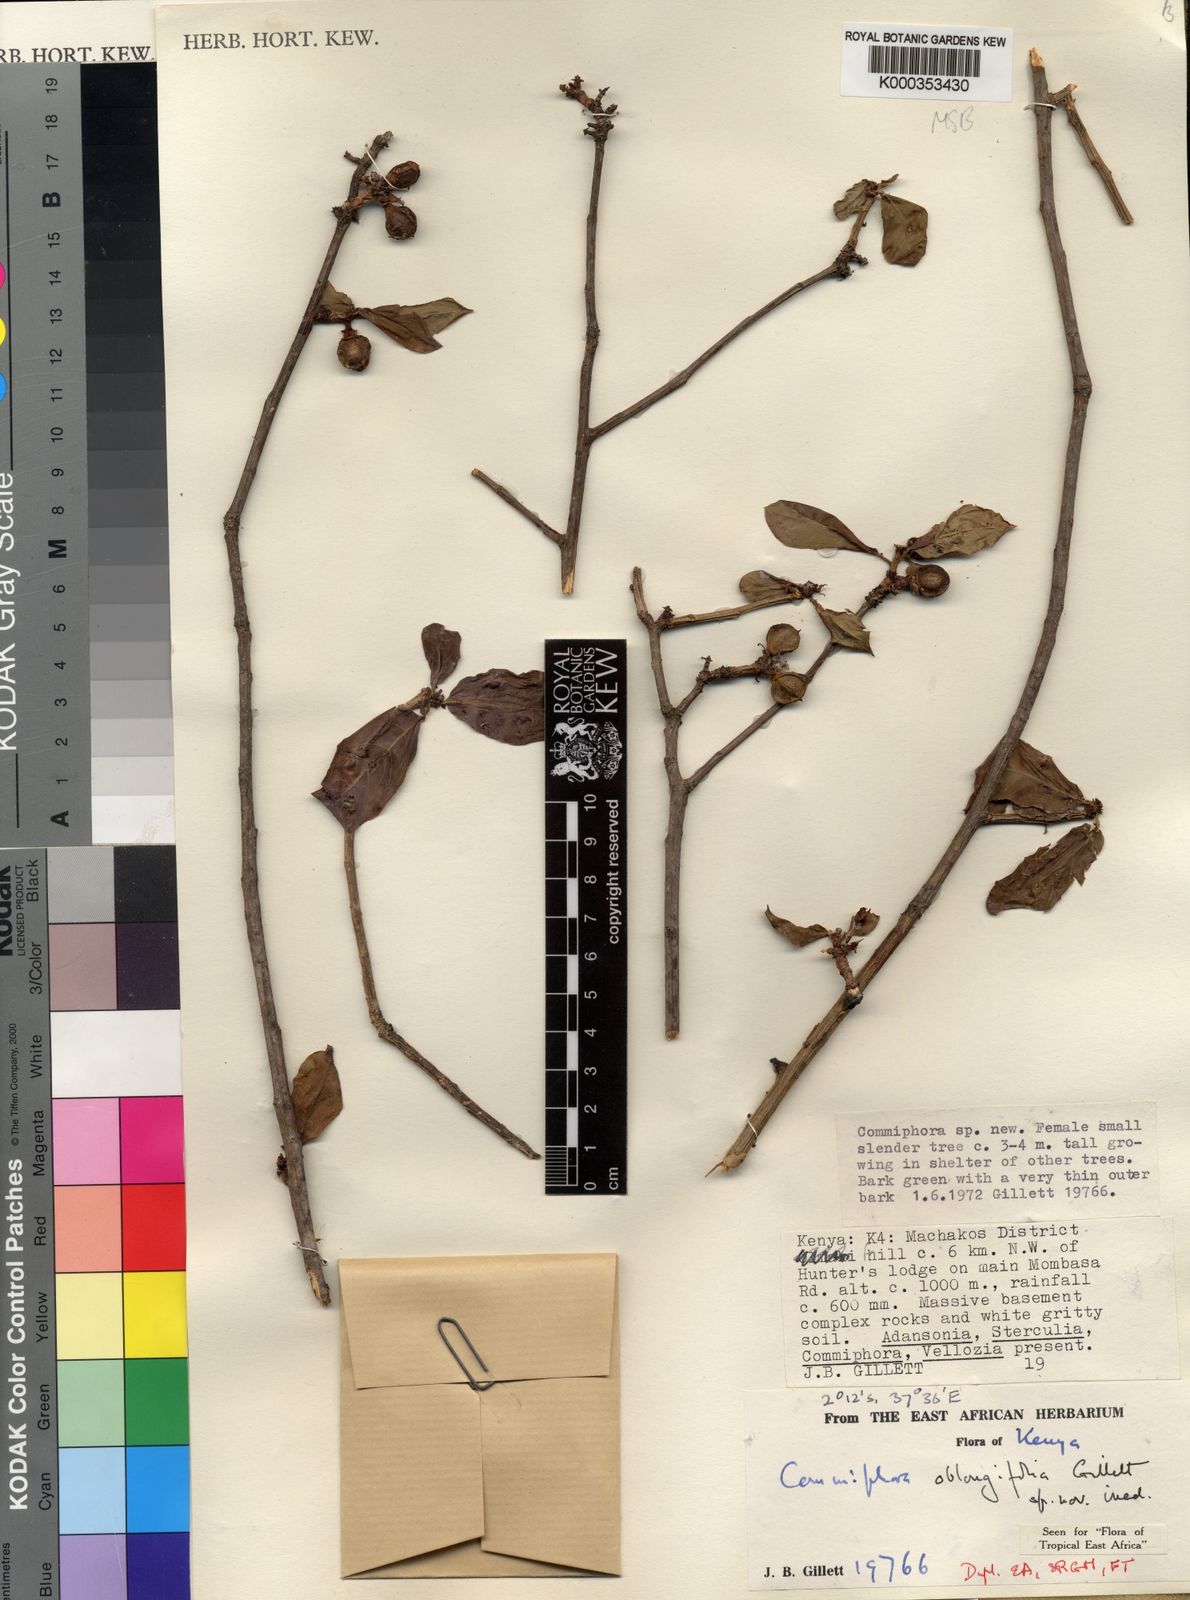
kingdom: Plantae
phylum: Tracheophyta
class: Magnoliopsida
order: Sapindales
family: Burseraceae
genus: Commiphora
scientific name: Commiphora oblongifolia
